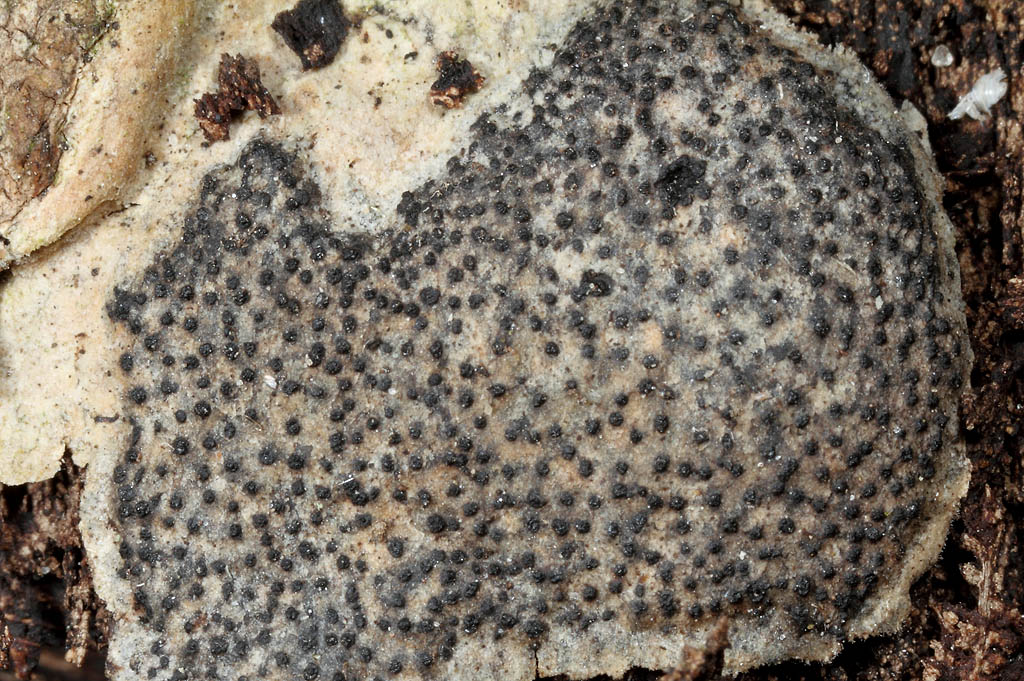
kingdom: Fungi
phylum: Ascomycota
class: Sordariomycetes
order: Diaporthales
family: Valsaceae
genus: Cytospora
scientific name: Cytospora populina
